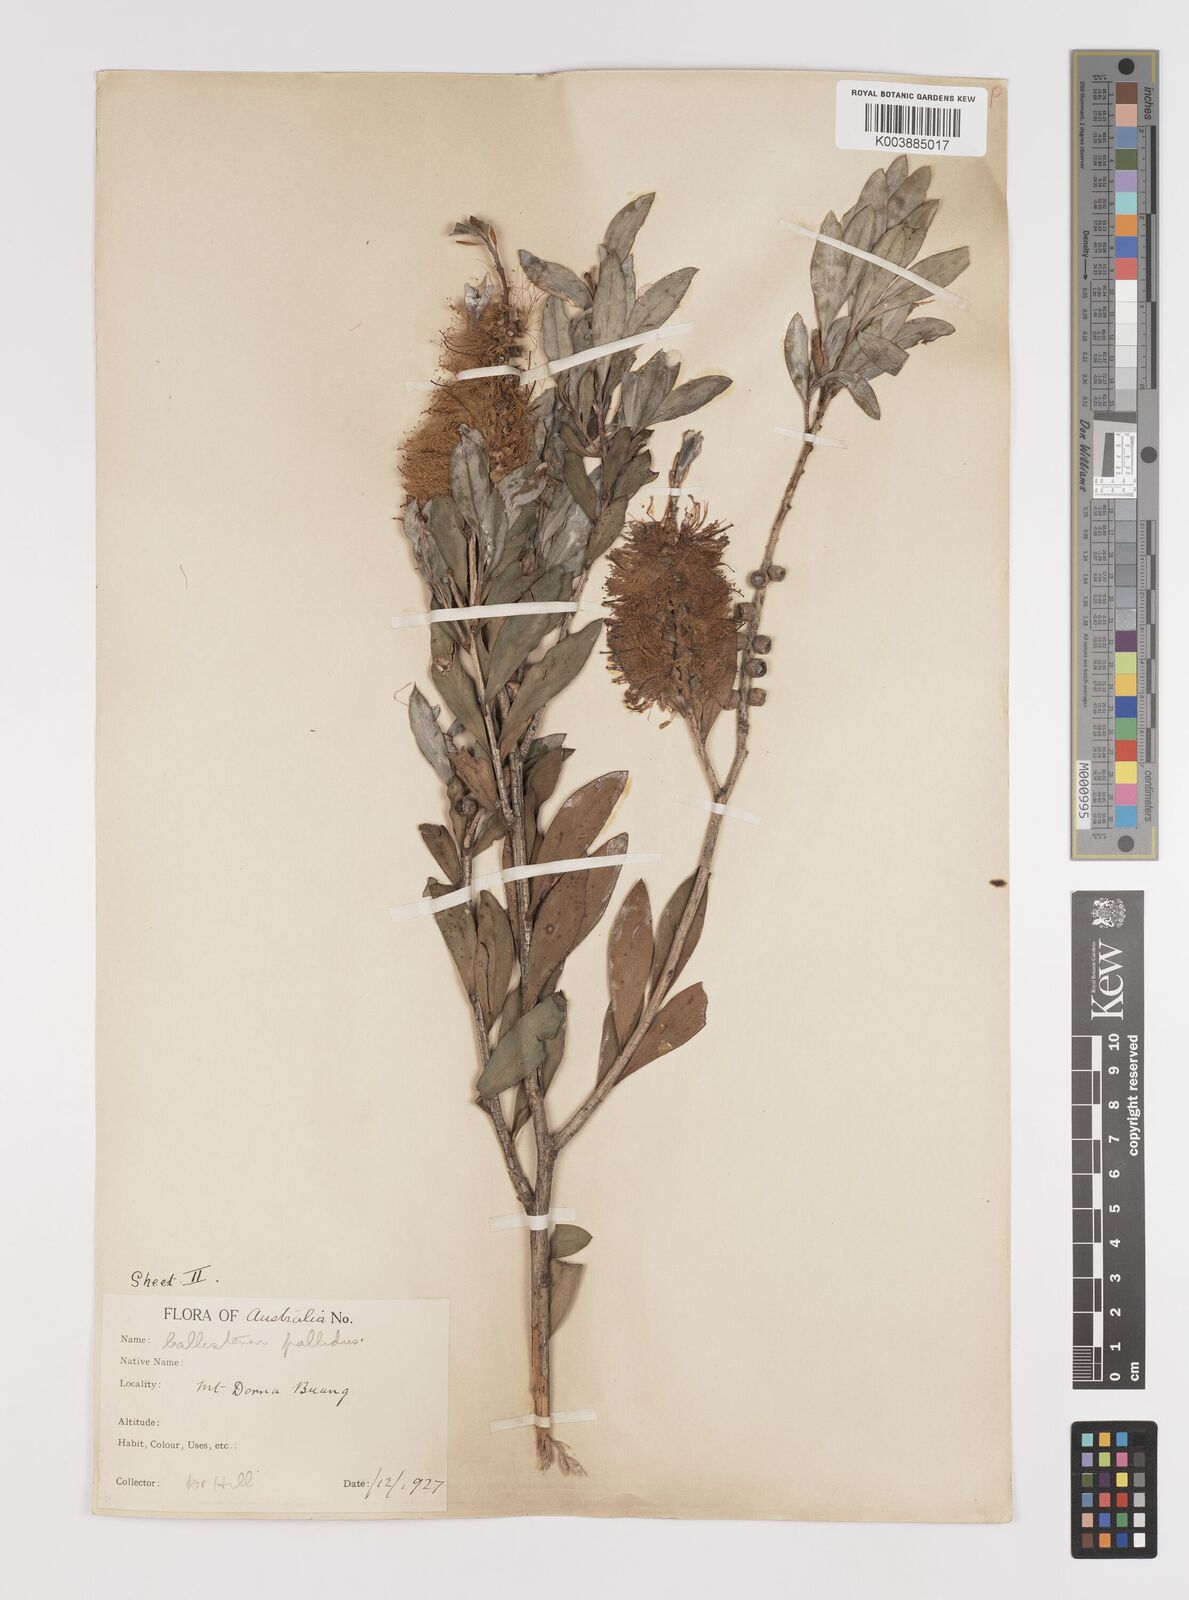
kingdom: Plantae
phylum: Tracheophyta
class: Magnoliopsida
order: Myrtales
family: Myrtaceae
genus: Melaleuca
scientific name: Melaleuca pallida
